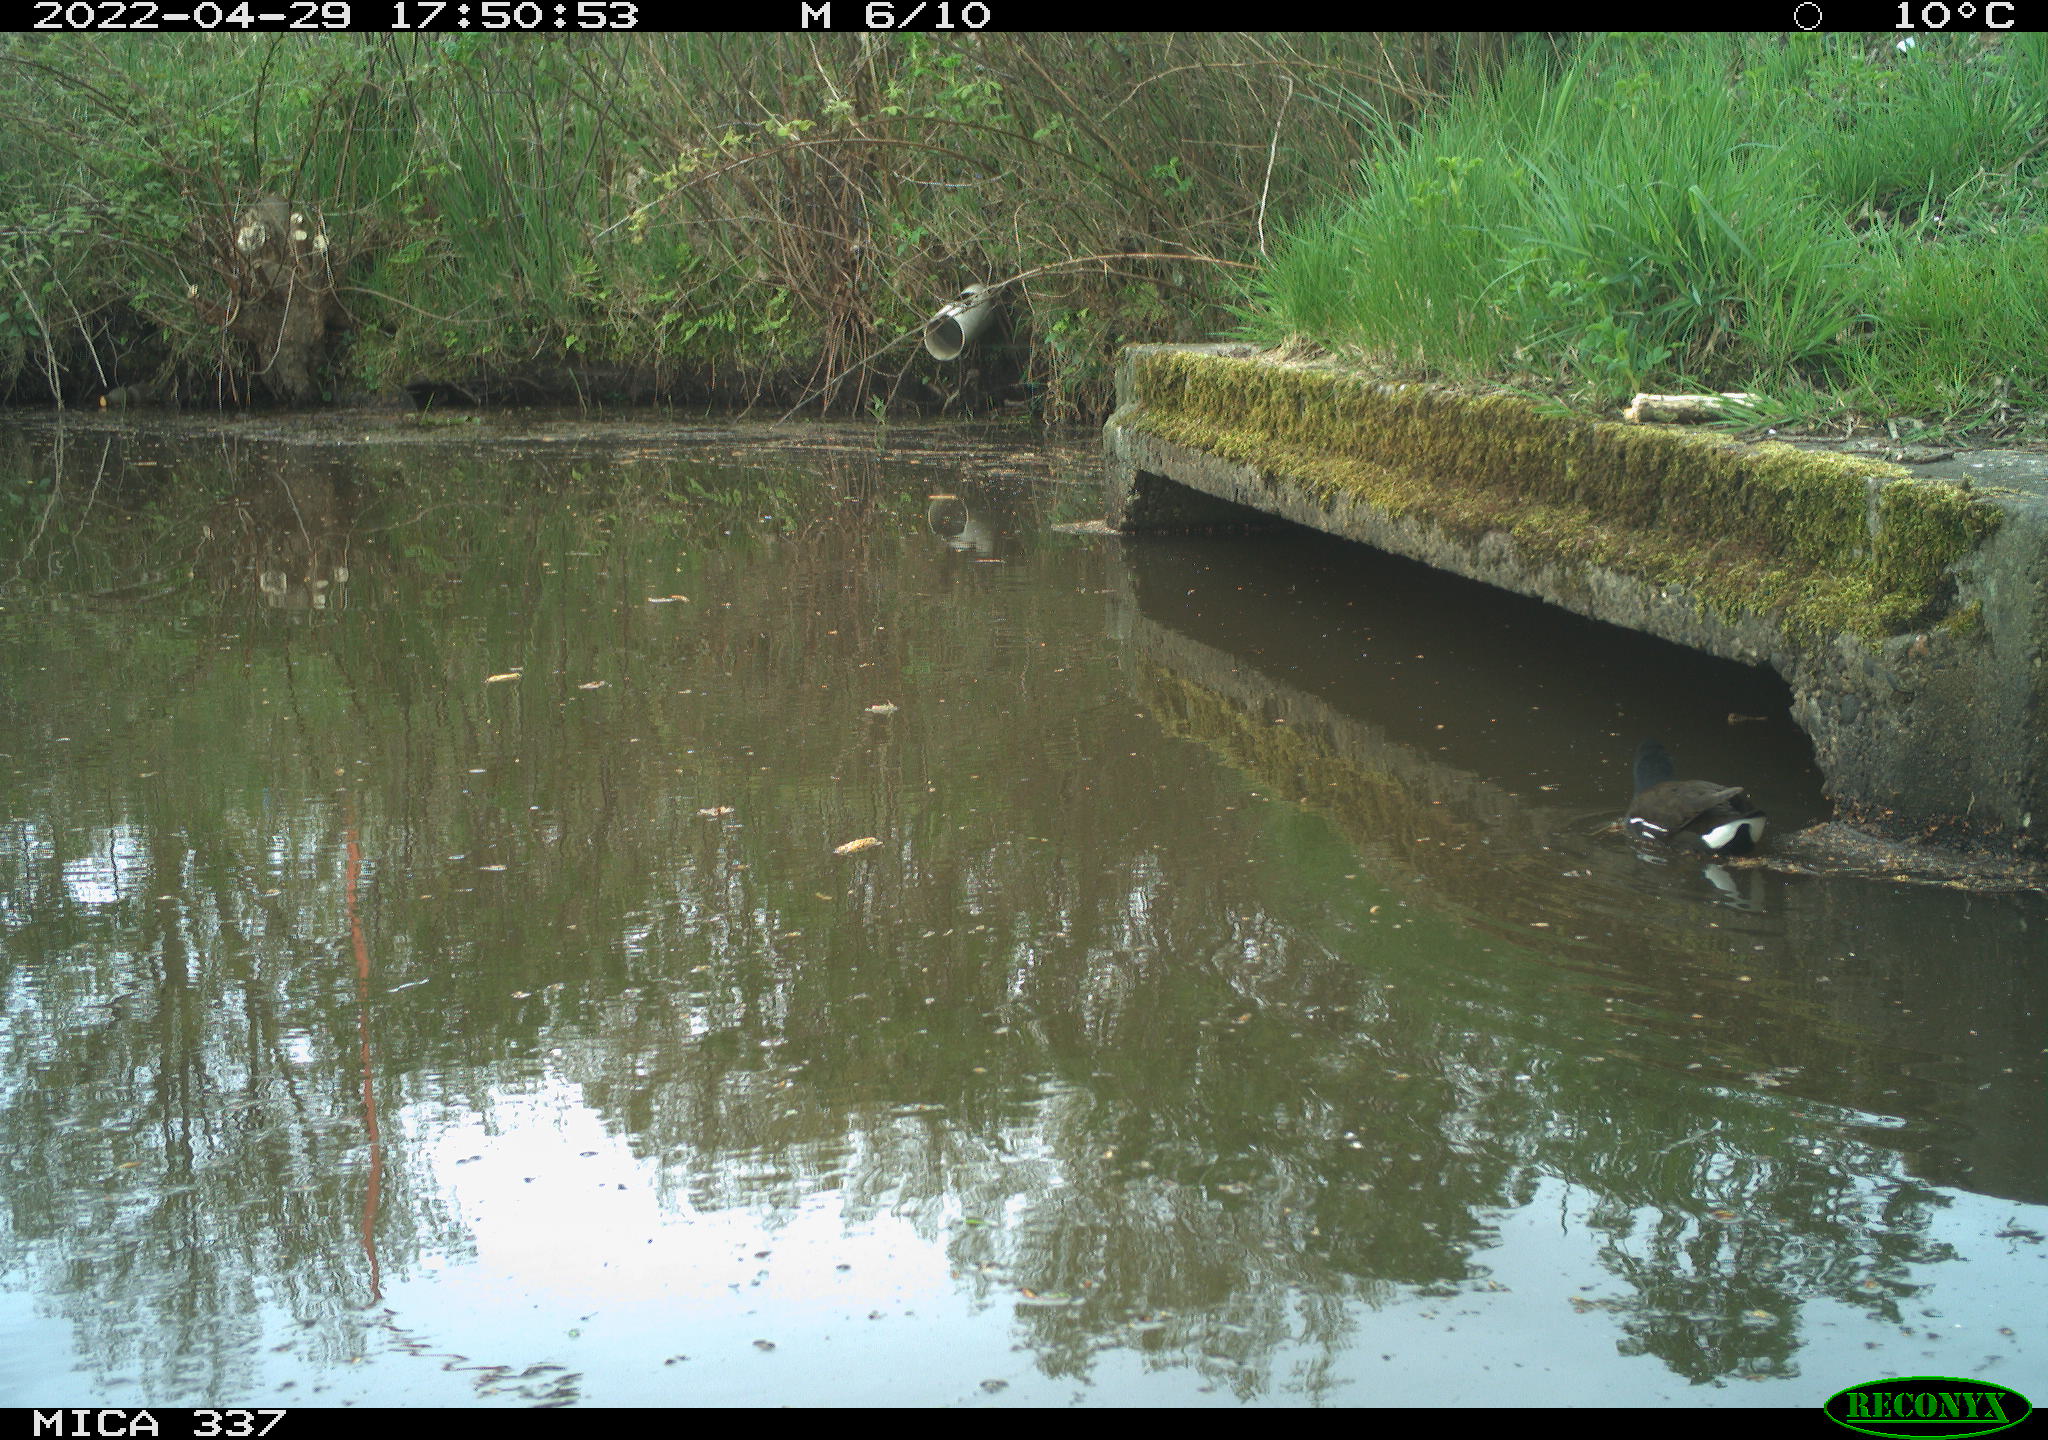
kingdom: Animalia
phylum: Chordata
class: Aves
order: Gruiformes
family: Rallidae
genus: Gallinula
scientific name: Gallinula chloropus
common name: Common moorhen
